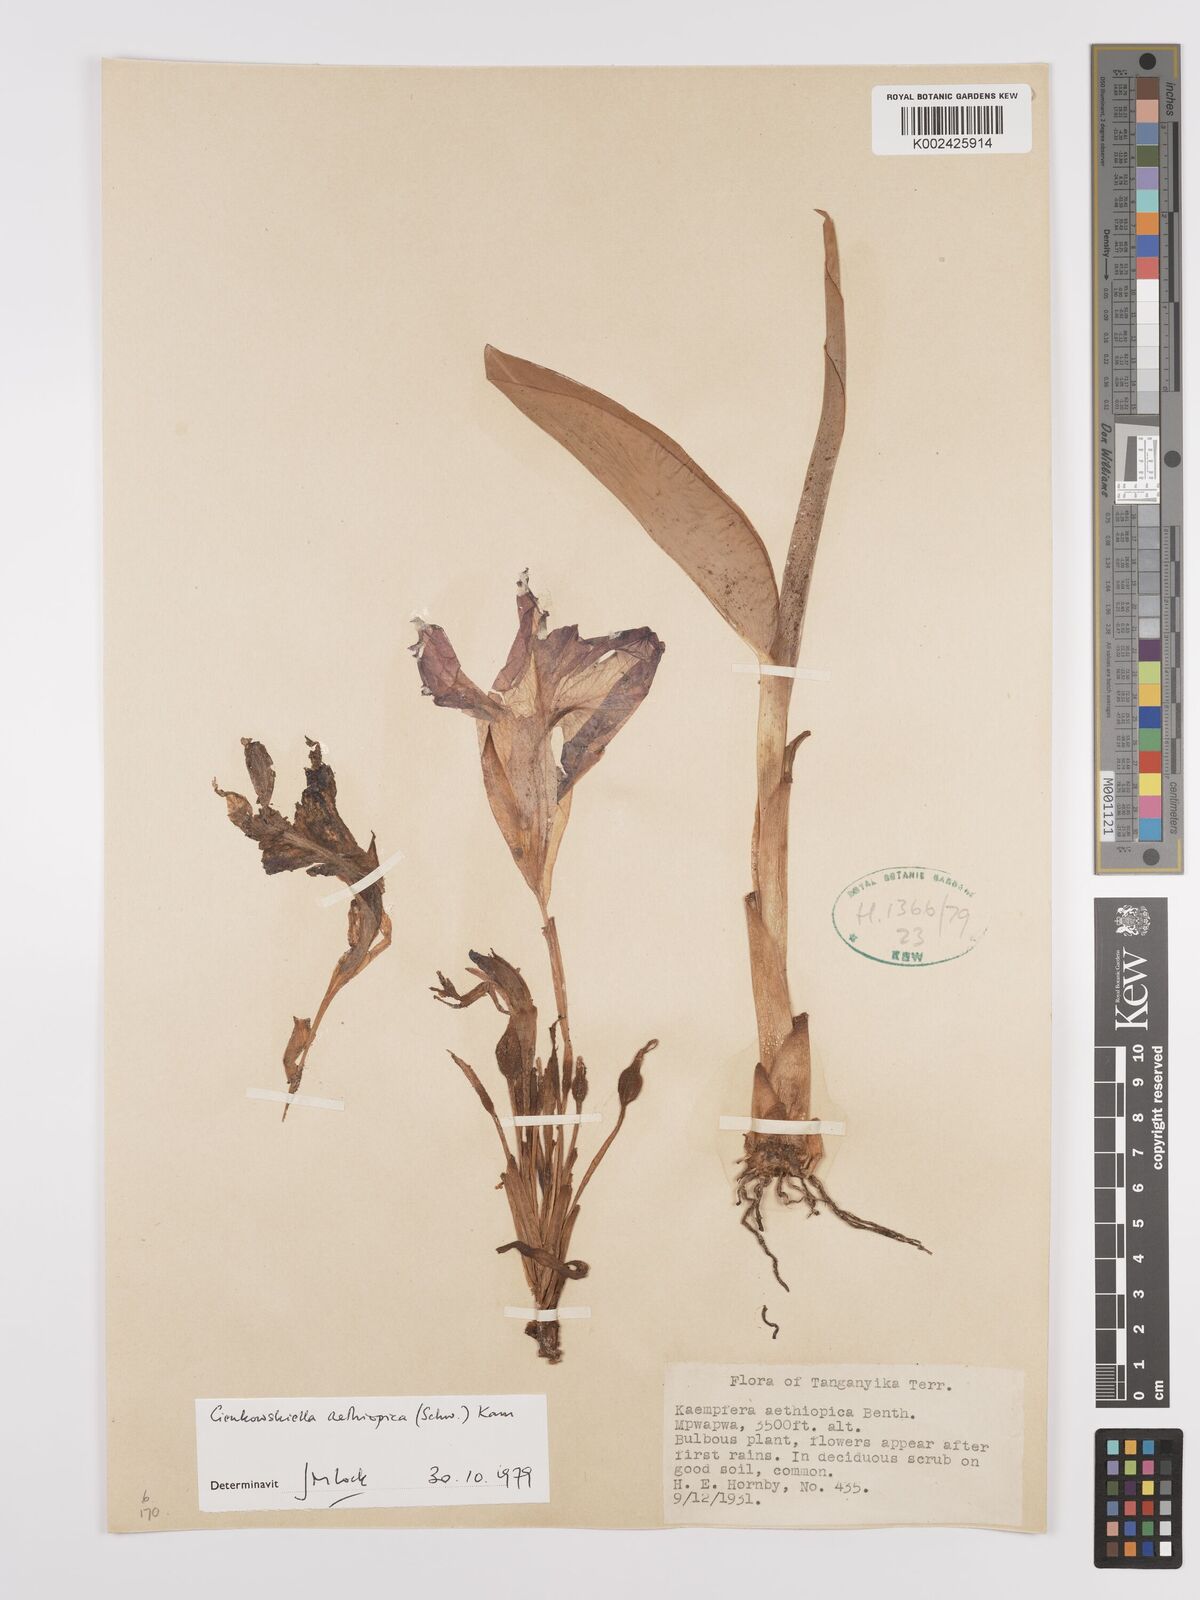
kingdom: Plantae
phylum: Tracheophyta
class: Liliopsida
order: Zingiberales
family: Zingiberaceae
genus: Siphonochilus
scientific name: Siphonochilus aethiopicus
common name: African-ginger
